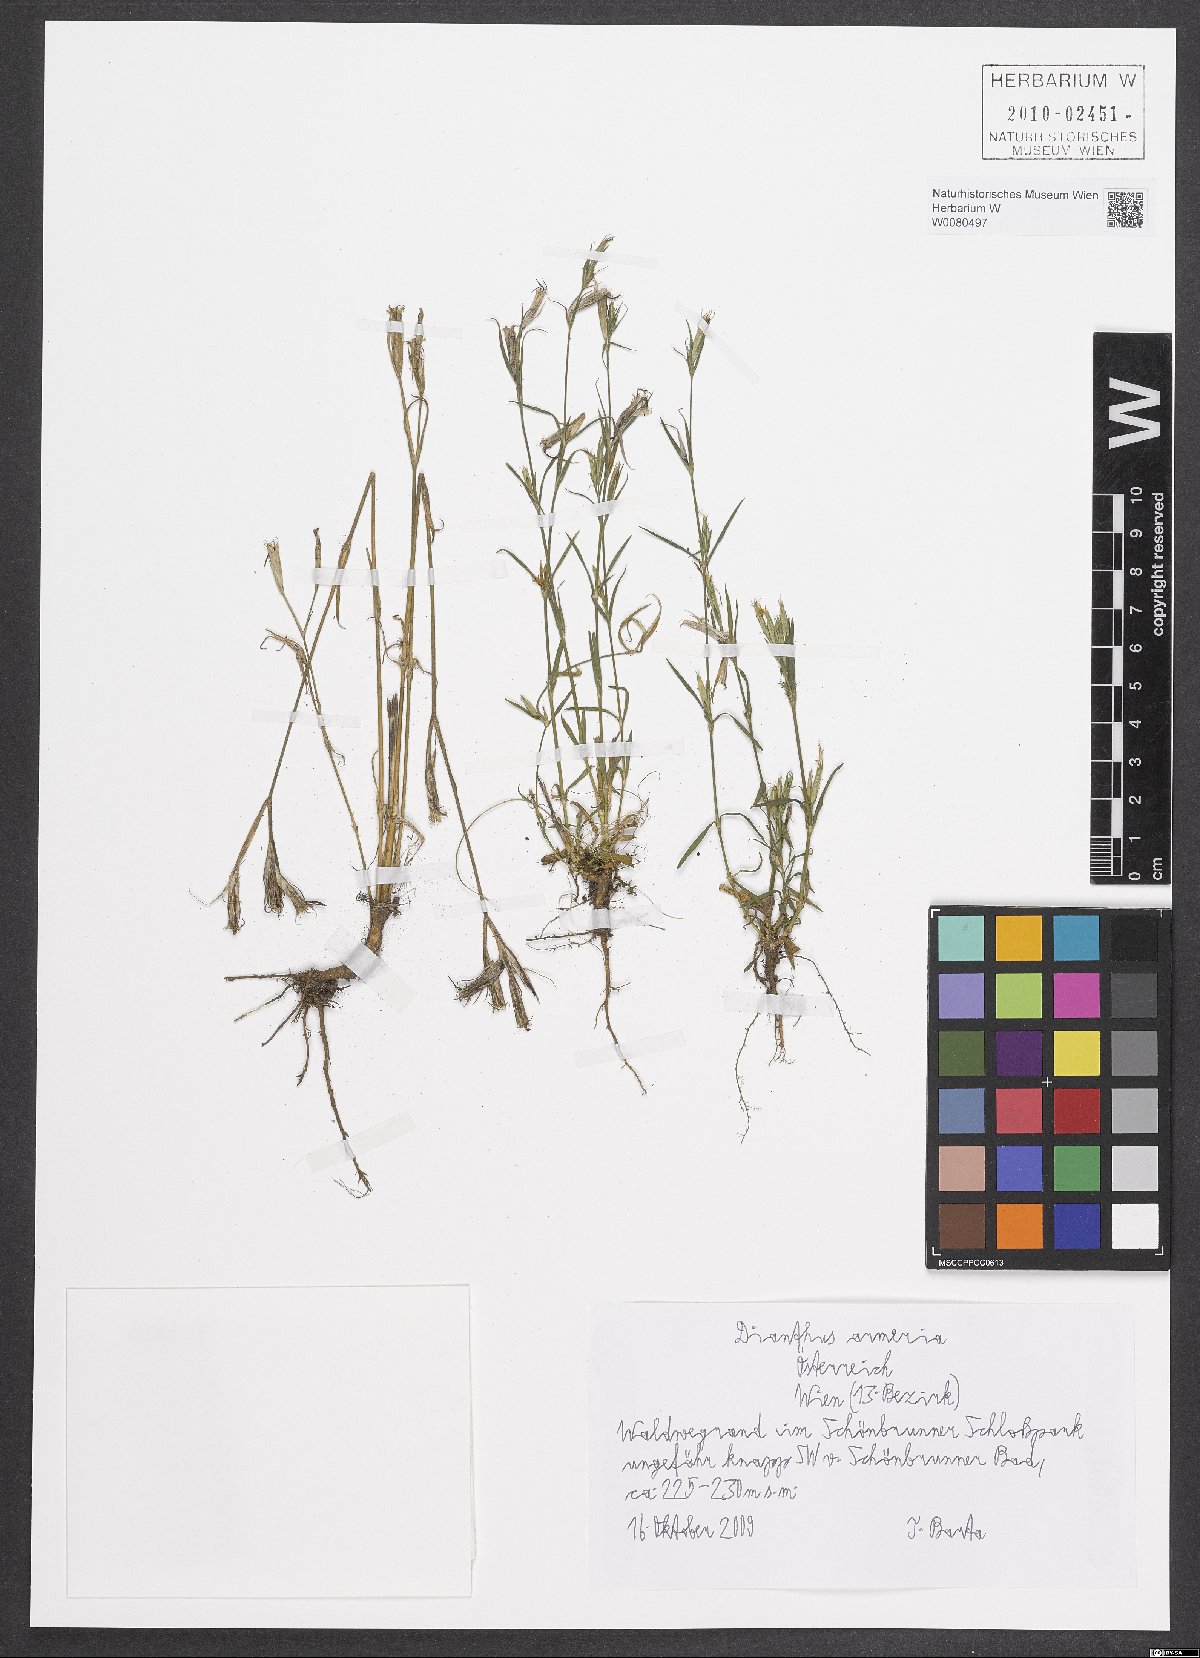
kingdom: Plantae
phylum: Tracheophyta
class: Magnoliopsida
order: Caryophyllales
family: Caryophyllaceae
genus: Dianthus
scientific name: Dianthus armeria
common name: Deptford pink
